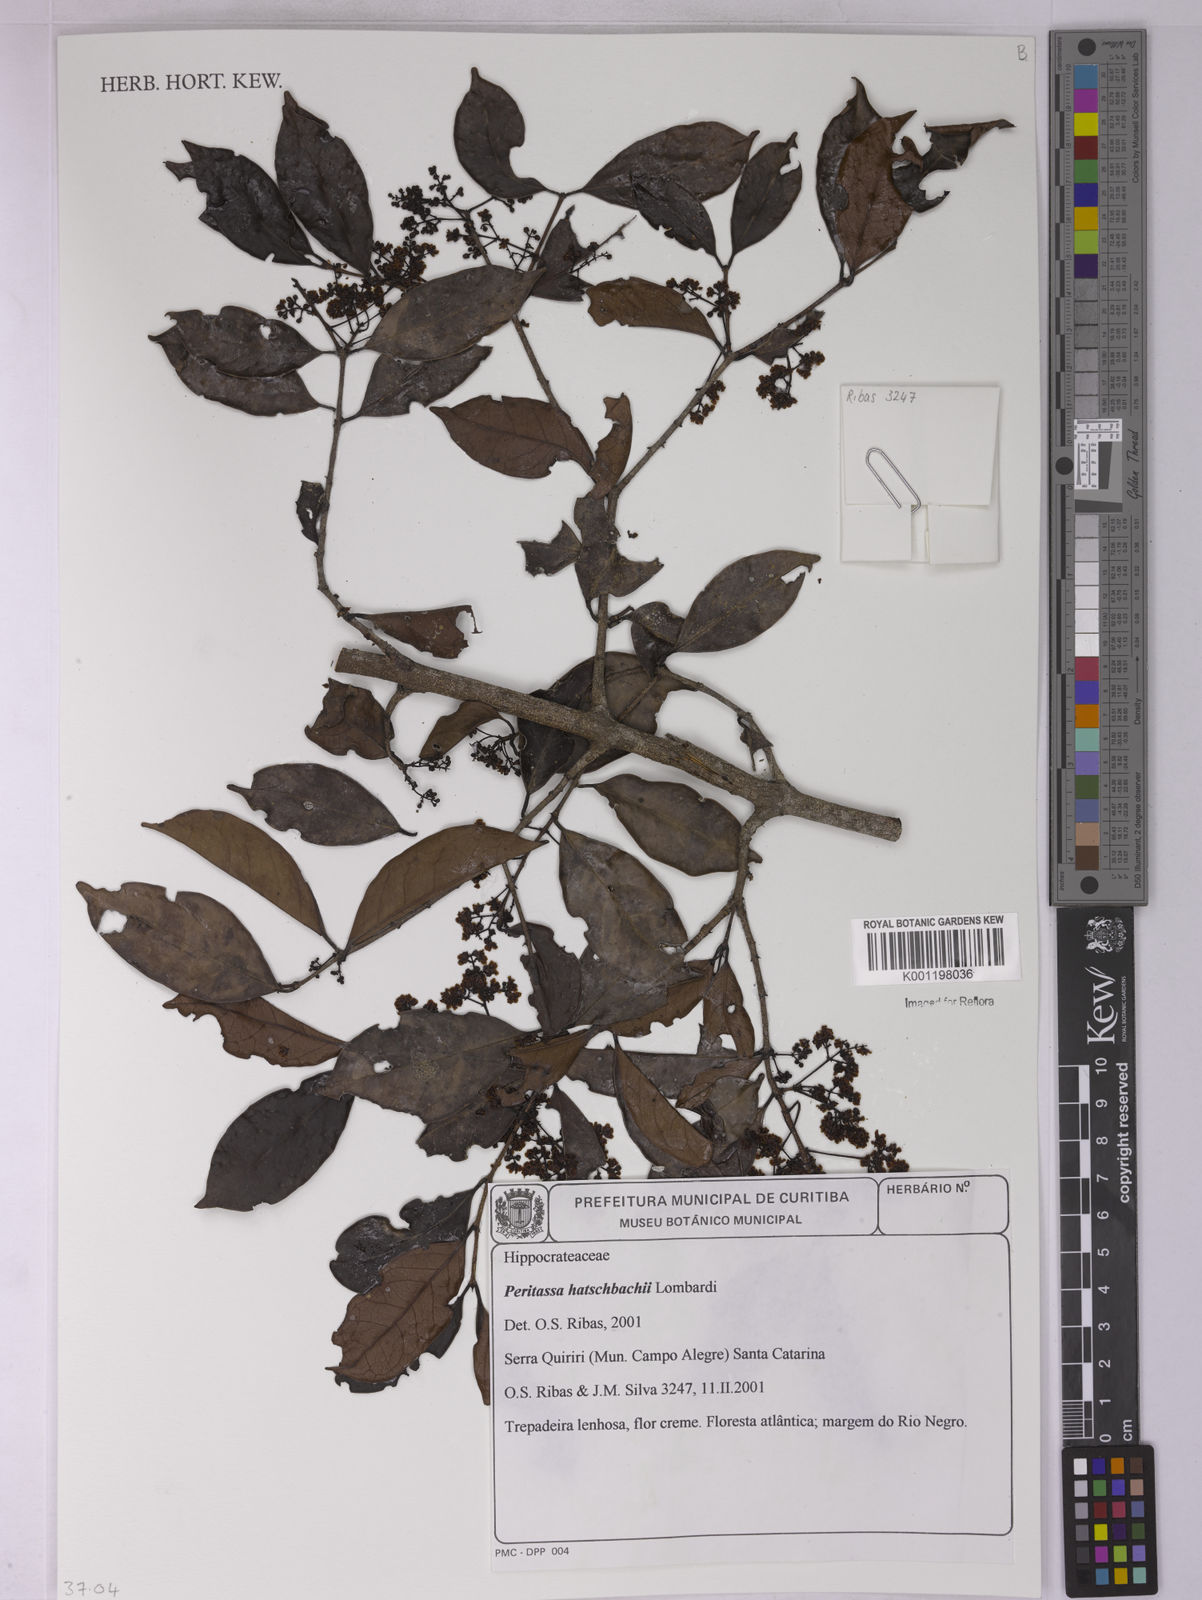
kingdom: Plantae
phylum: Tracheophyta
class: Magnoliopsida
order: Celastrales
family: Celastraceae
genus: Peritassa
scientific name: Peritassa hatschbachii
